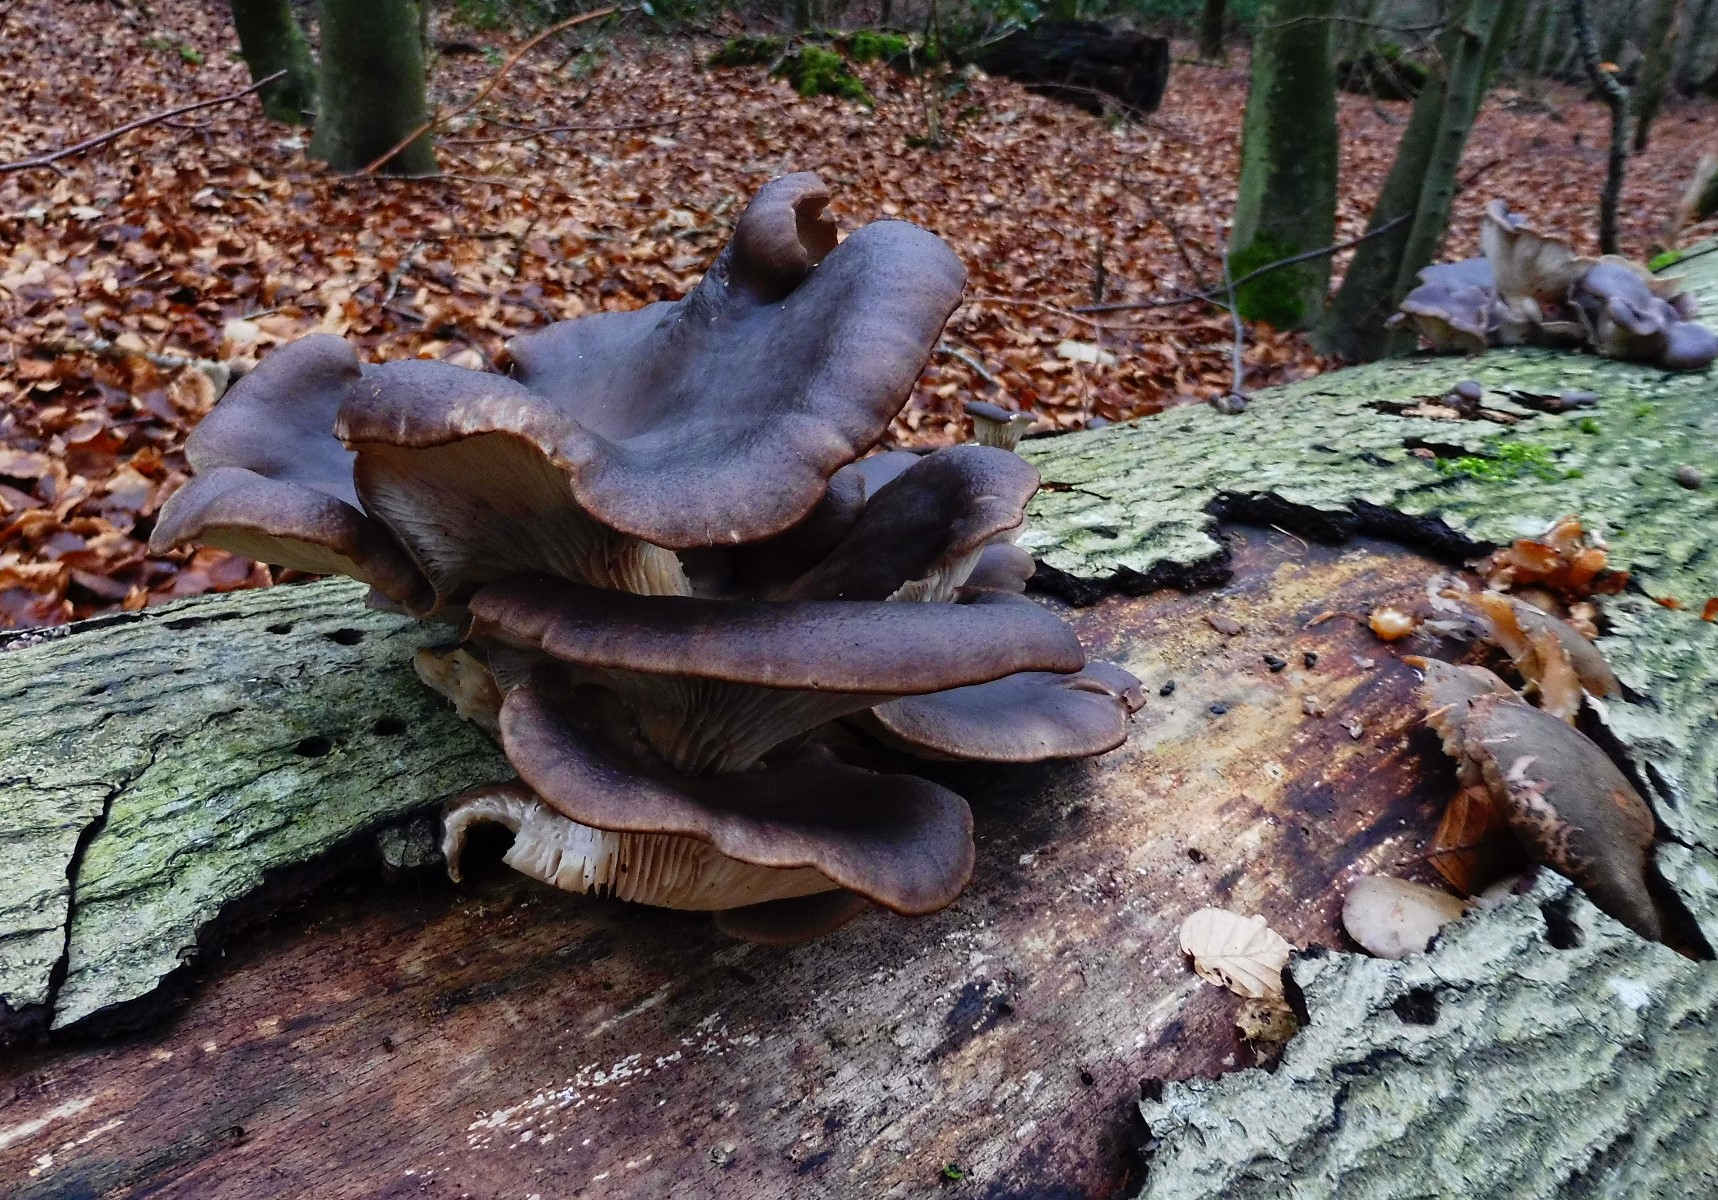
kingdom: Fungi
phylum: Basidiomycota
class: Agaricomycetes
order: Agaricales
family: Pleurotaceae
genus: Pleurotus
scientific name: Pleurotus ostreatus
